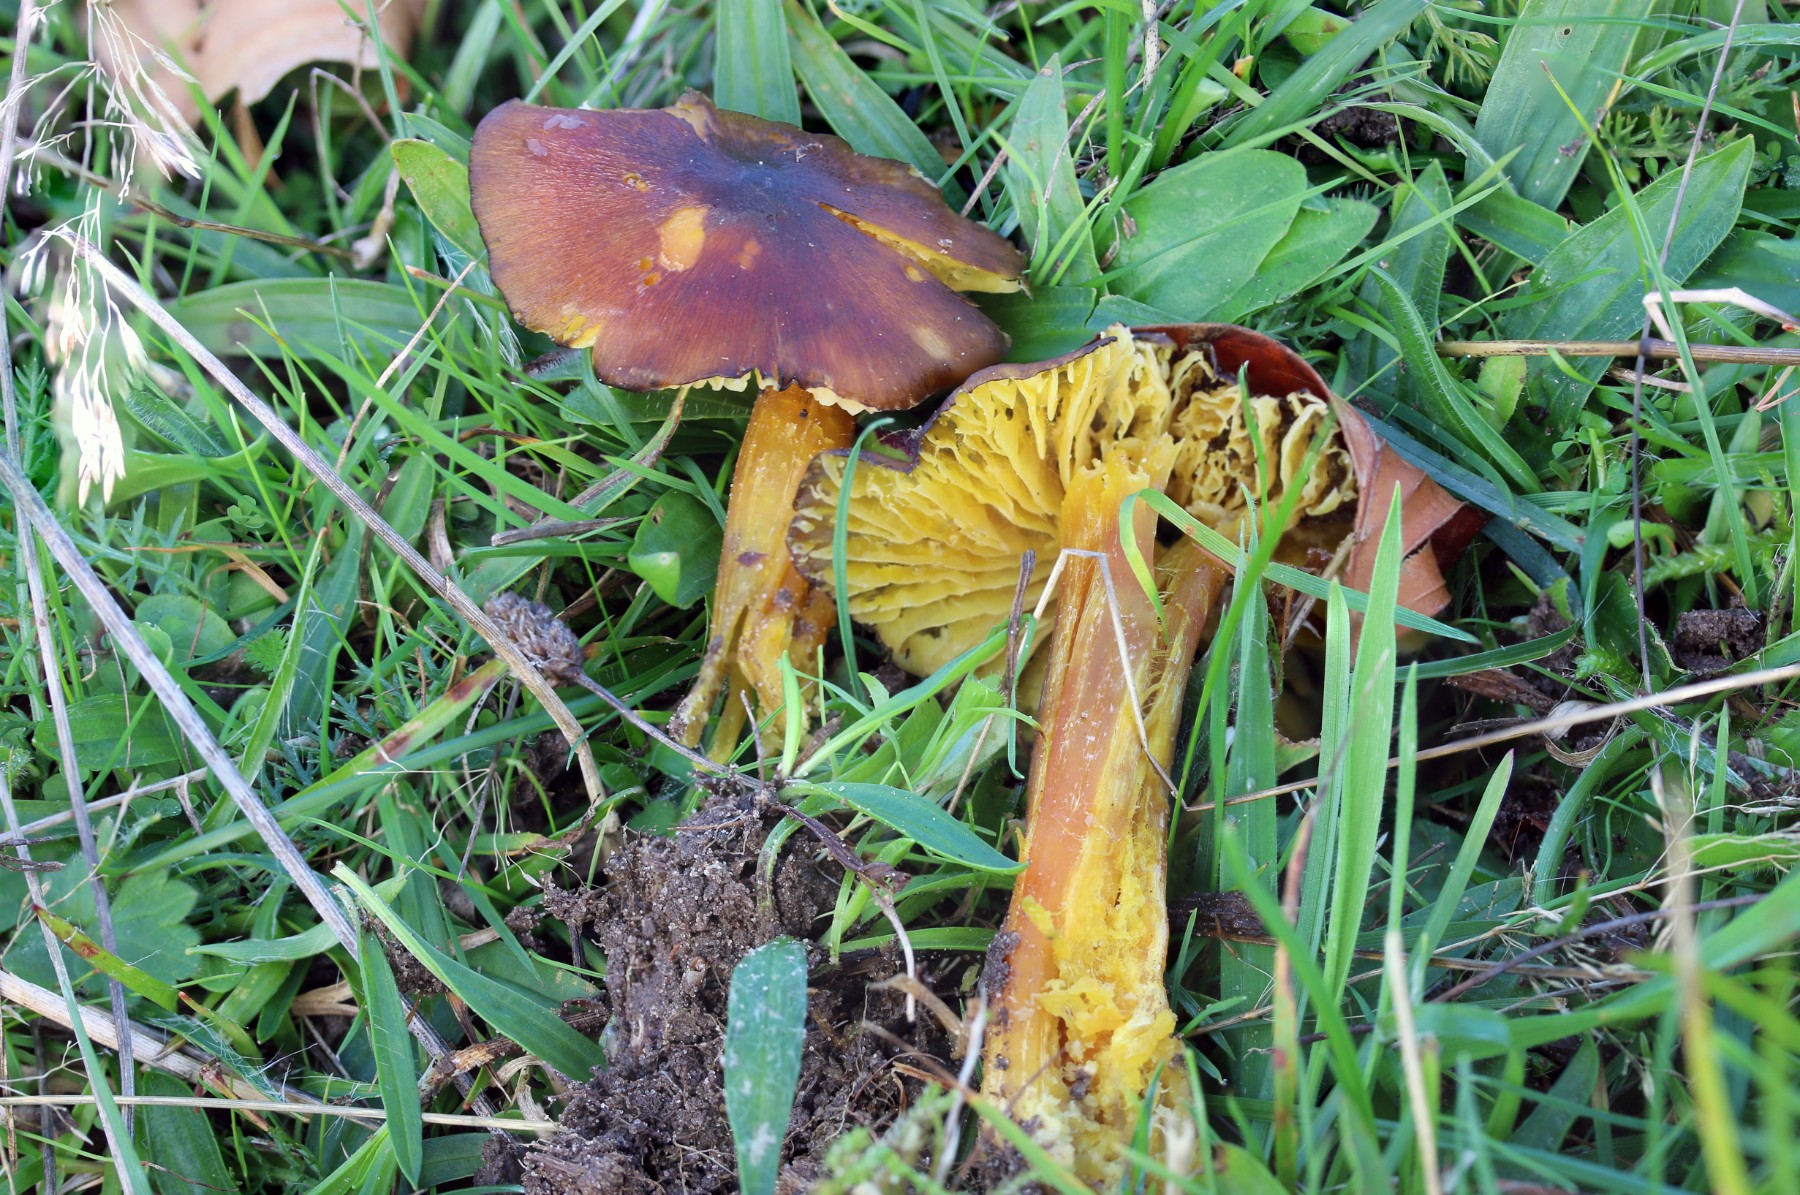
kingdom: Fungi
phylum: Basidiomycota
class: Agaricomycetes
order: Agaricales
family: Hygrophoraceae
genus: Hygrocybe
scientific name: Hygrocybe spadicea
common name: daddelbrun vokshat
